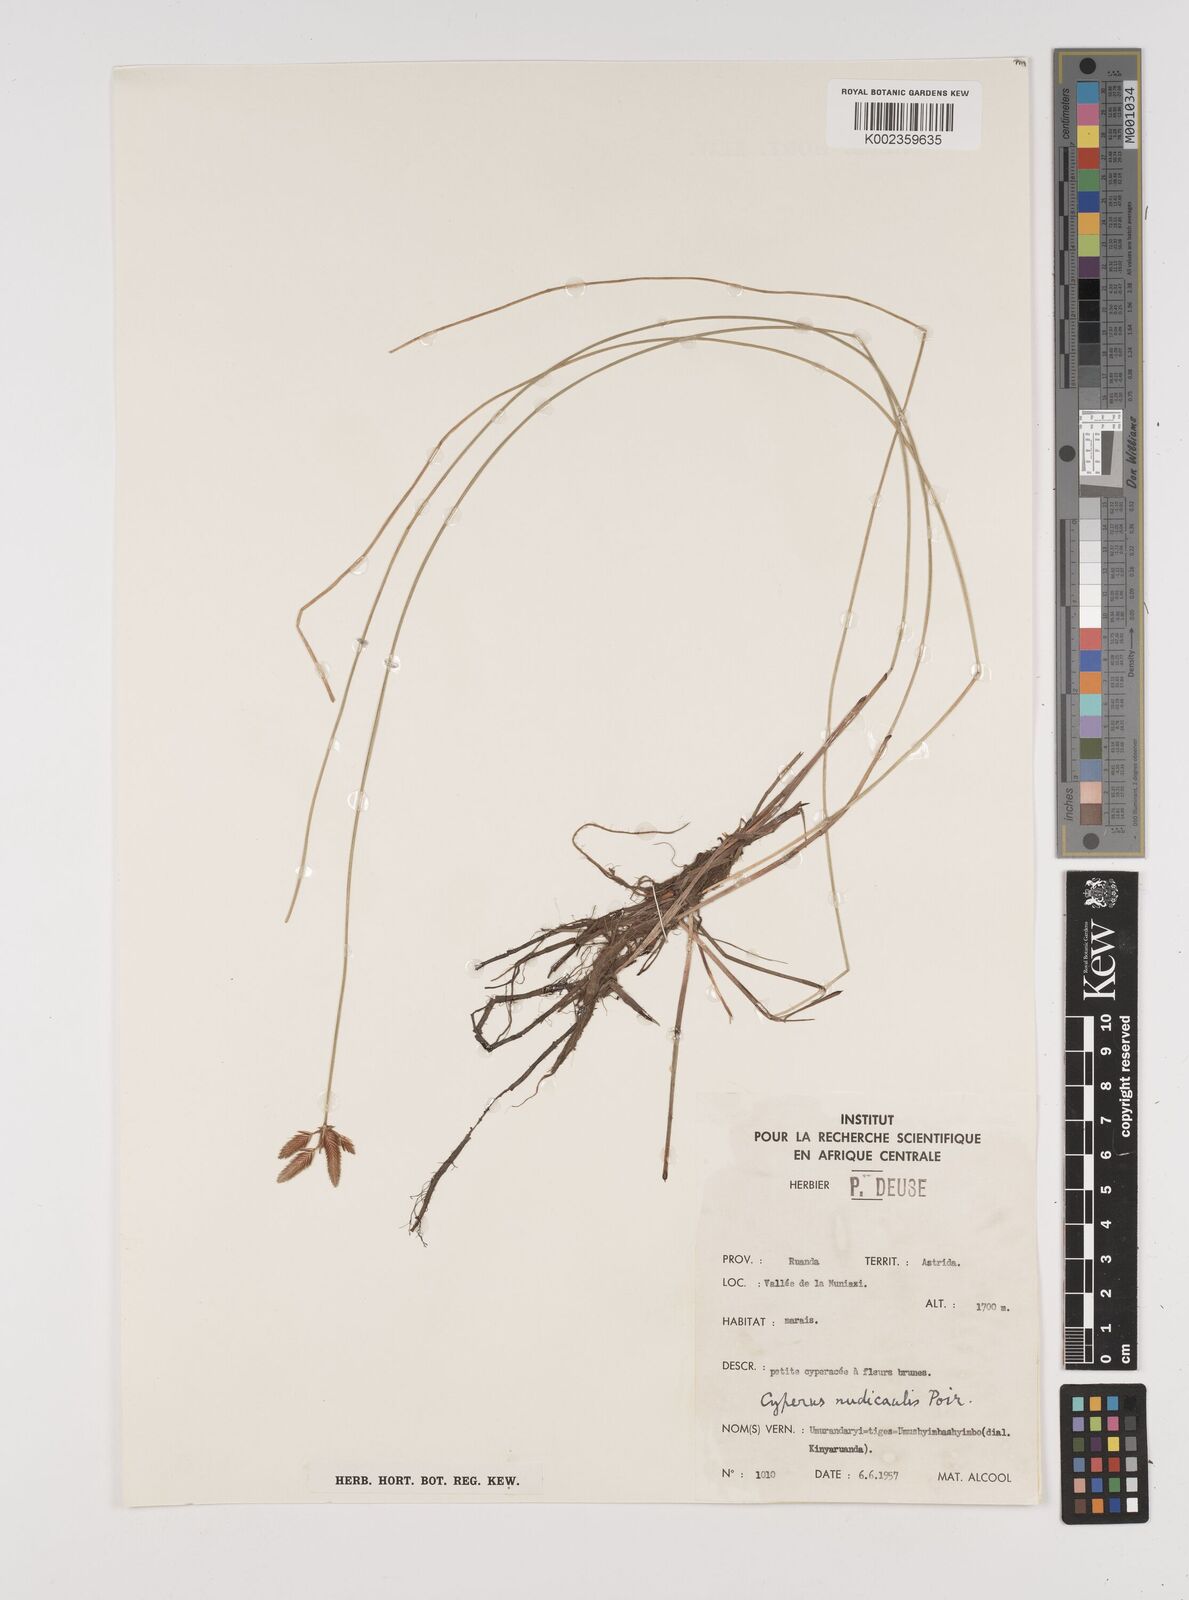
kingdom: Plantae
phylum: Tracheophyta
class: Liliopsida
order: Poales
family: Cyperaceae
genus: Cyperus
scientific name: Cyperus pectinatus
